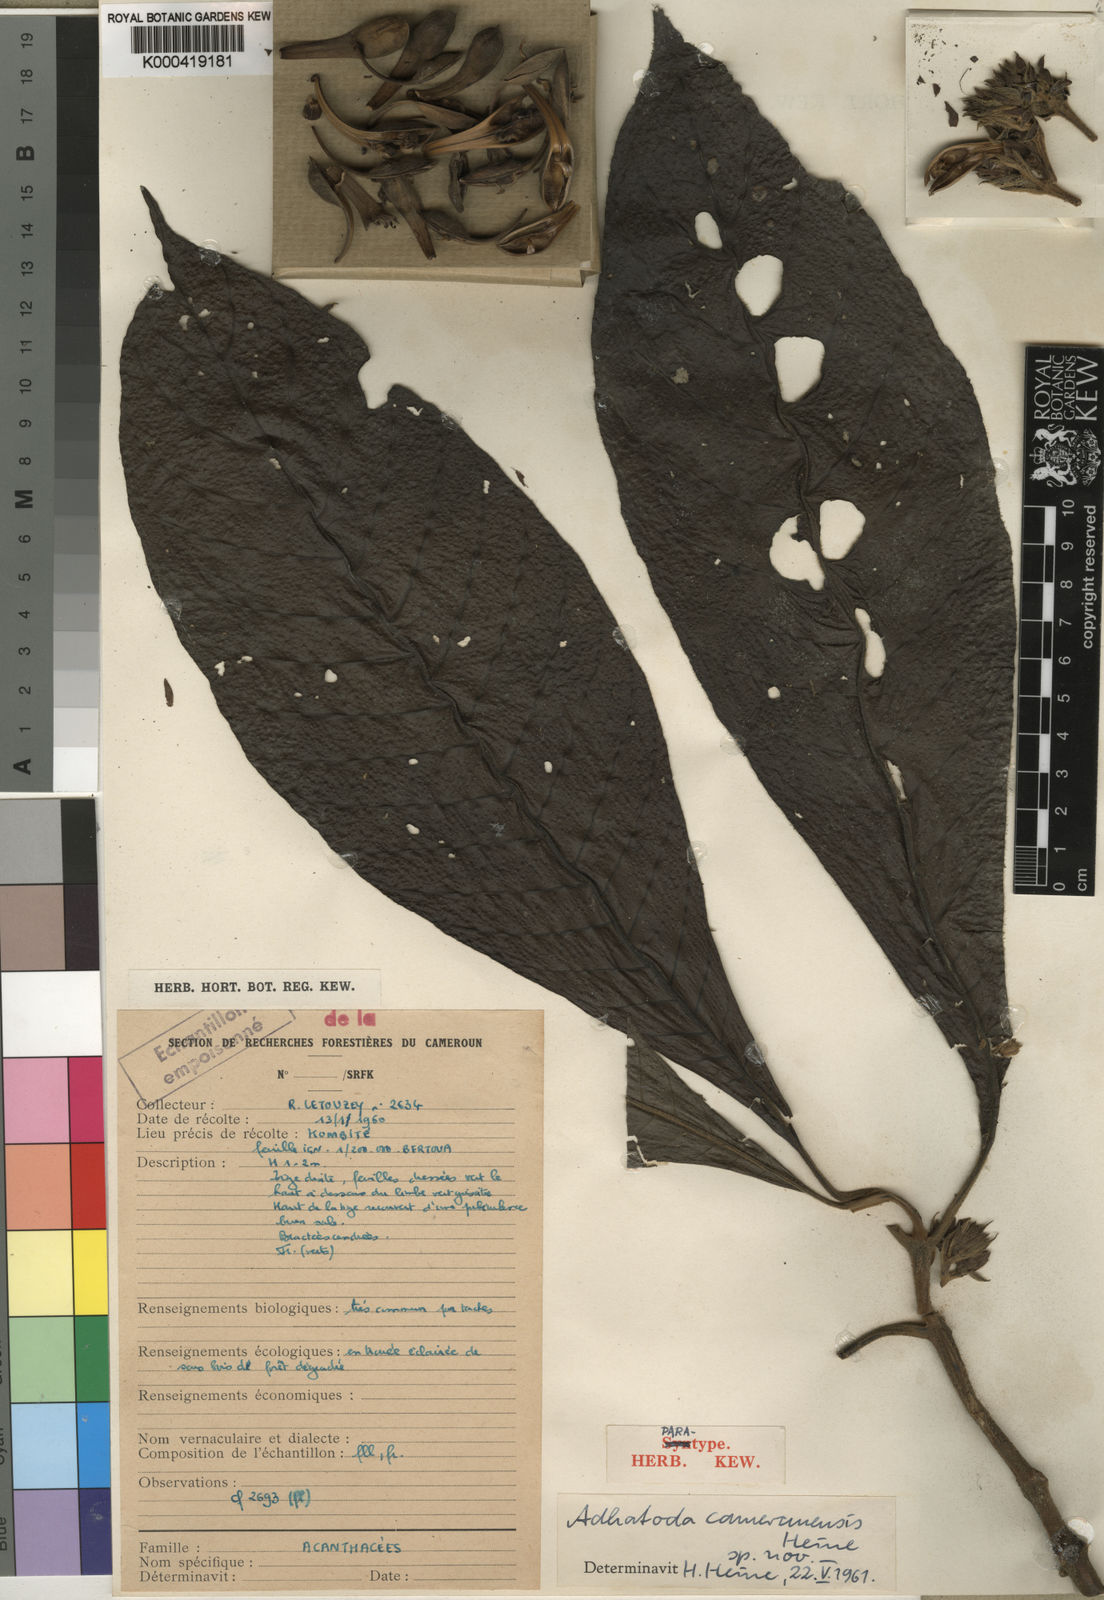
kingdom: Plantae
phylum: Tracheophyta
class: Magnoliopsida
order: Lamiales
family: Acanthaceae
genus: Justicia
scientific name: Justicia camerunensis
